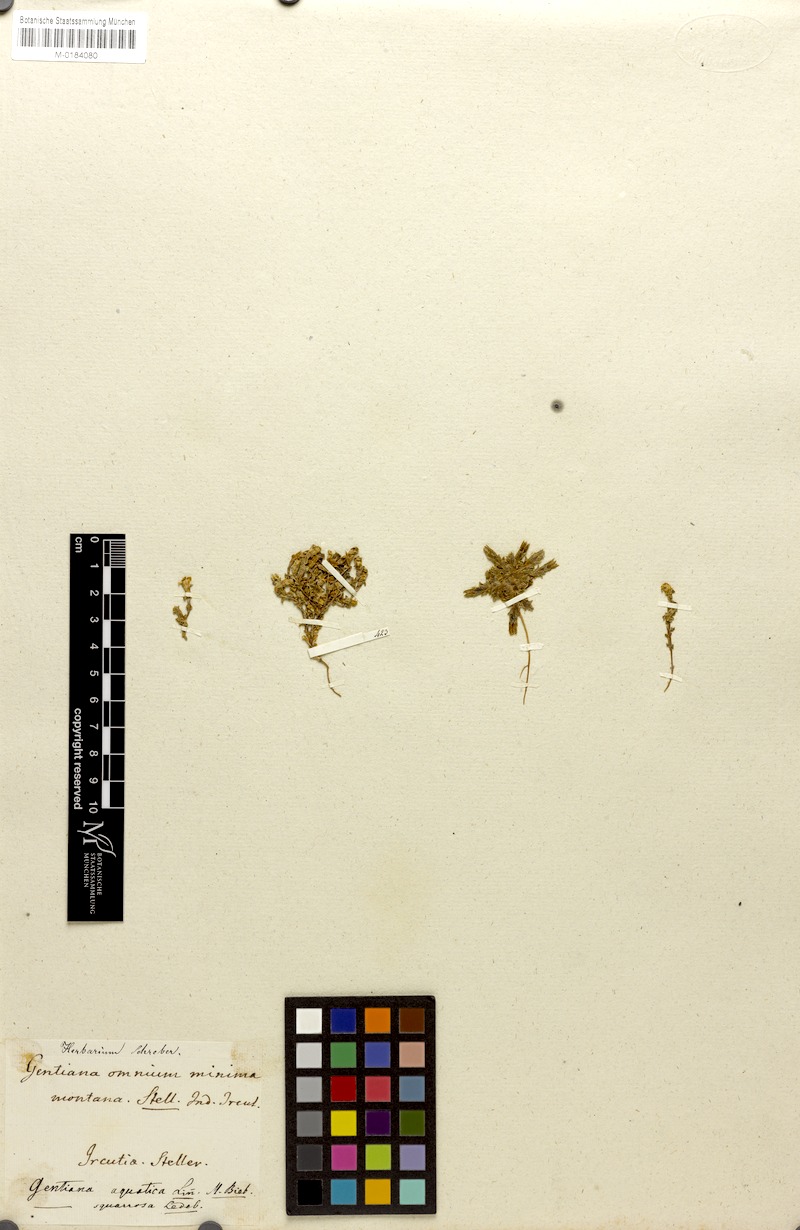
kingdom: Plantae
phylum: Tracheophyta
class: Magnoliopsida
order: Gentianales
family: Gentianaceae
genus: Gentiana
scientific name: Gentiana squarrosa
